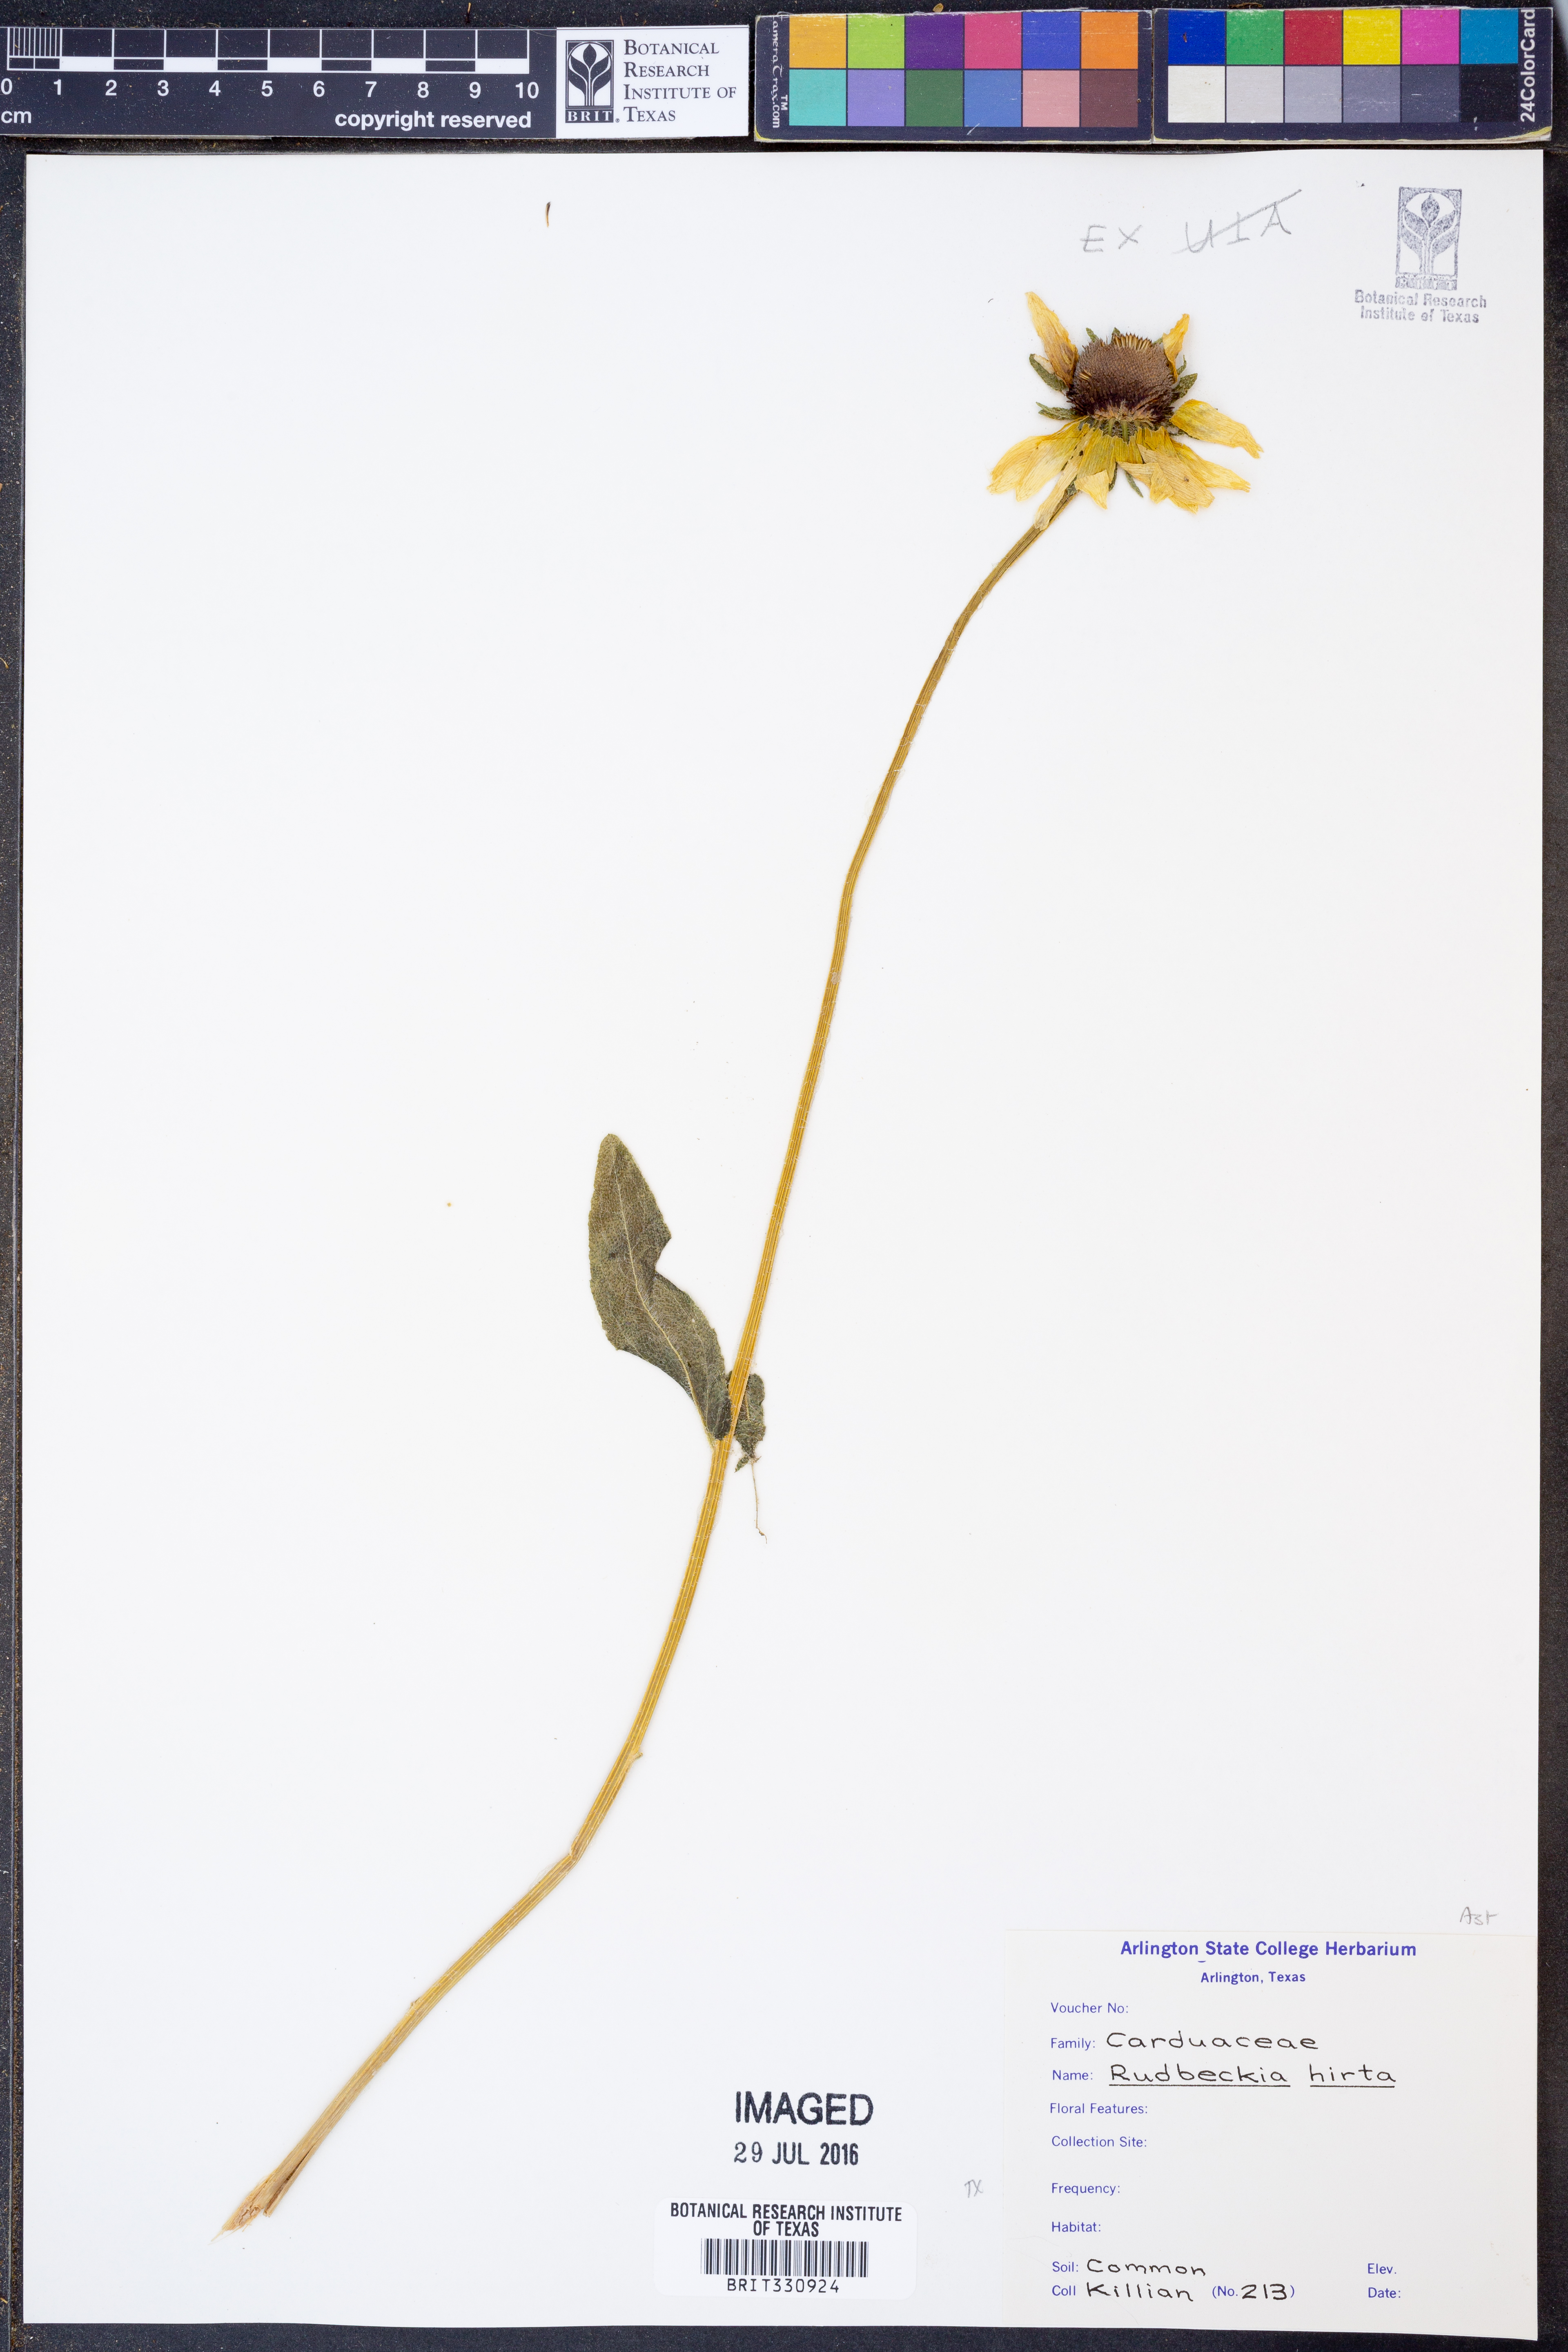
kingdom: Plantae
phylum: Tracheophyta
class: Magnoliopsida
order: Asterales
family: Asteraceae
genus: Rudbeckia
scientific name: Rudbeckia hirta
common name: Black-eyed-susan
